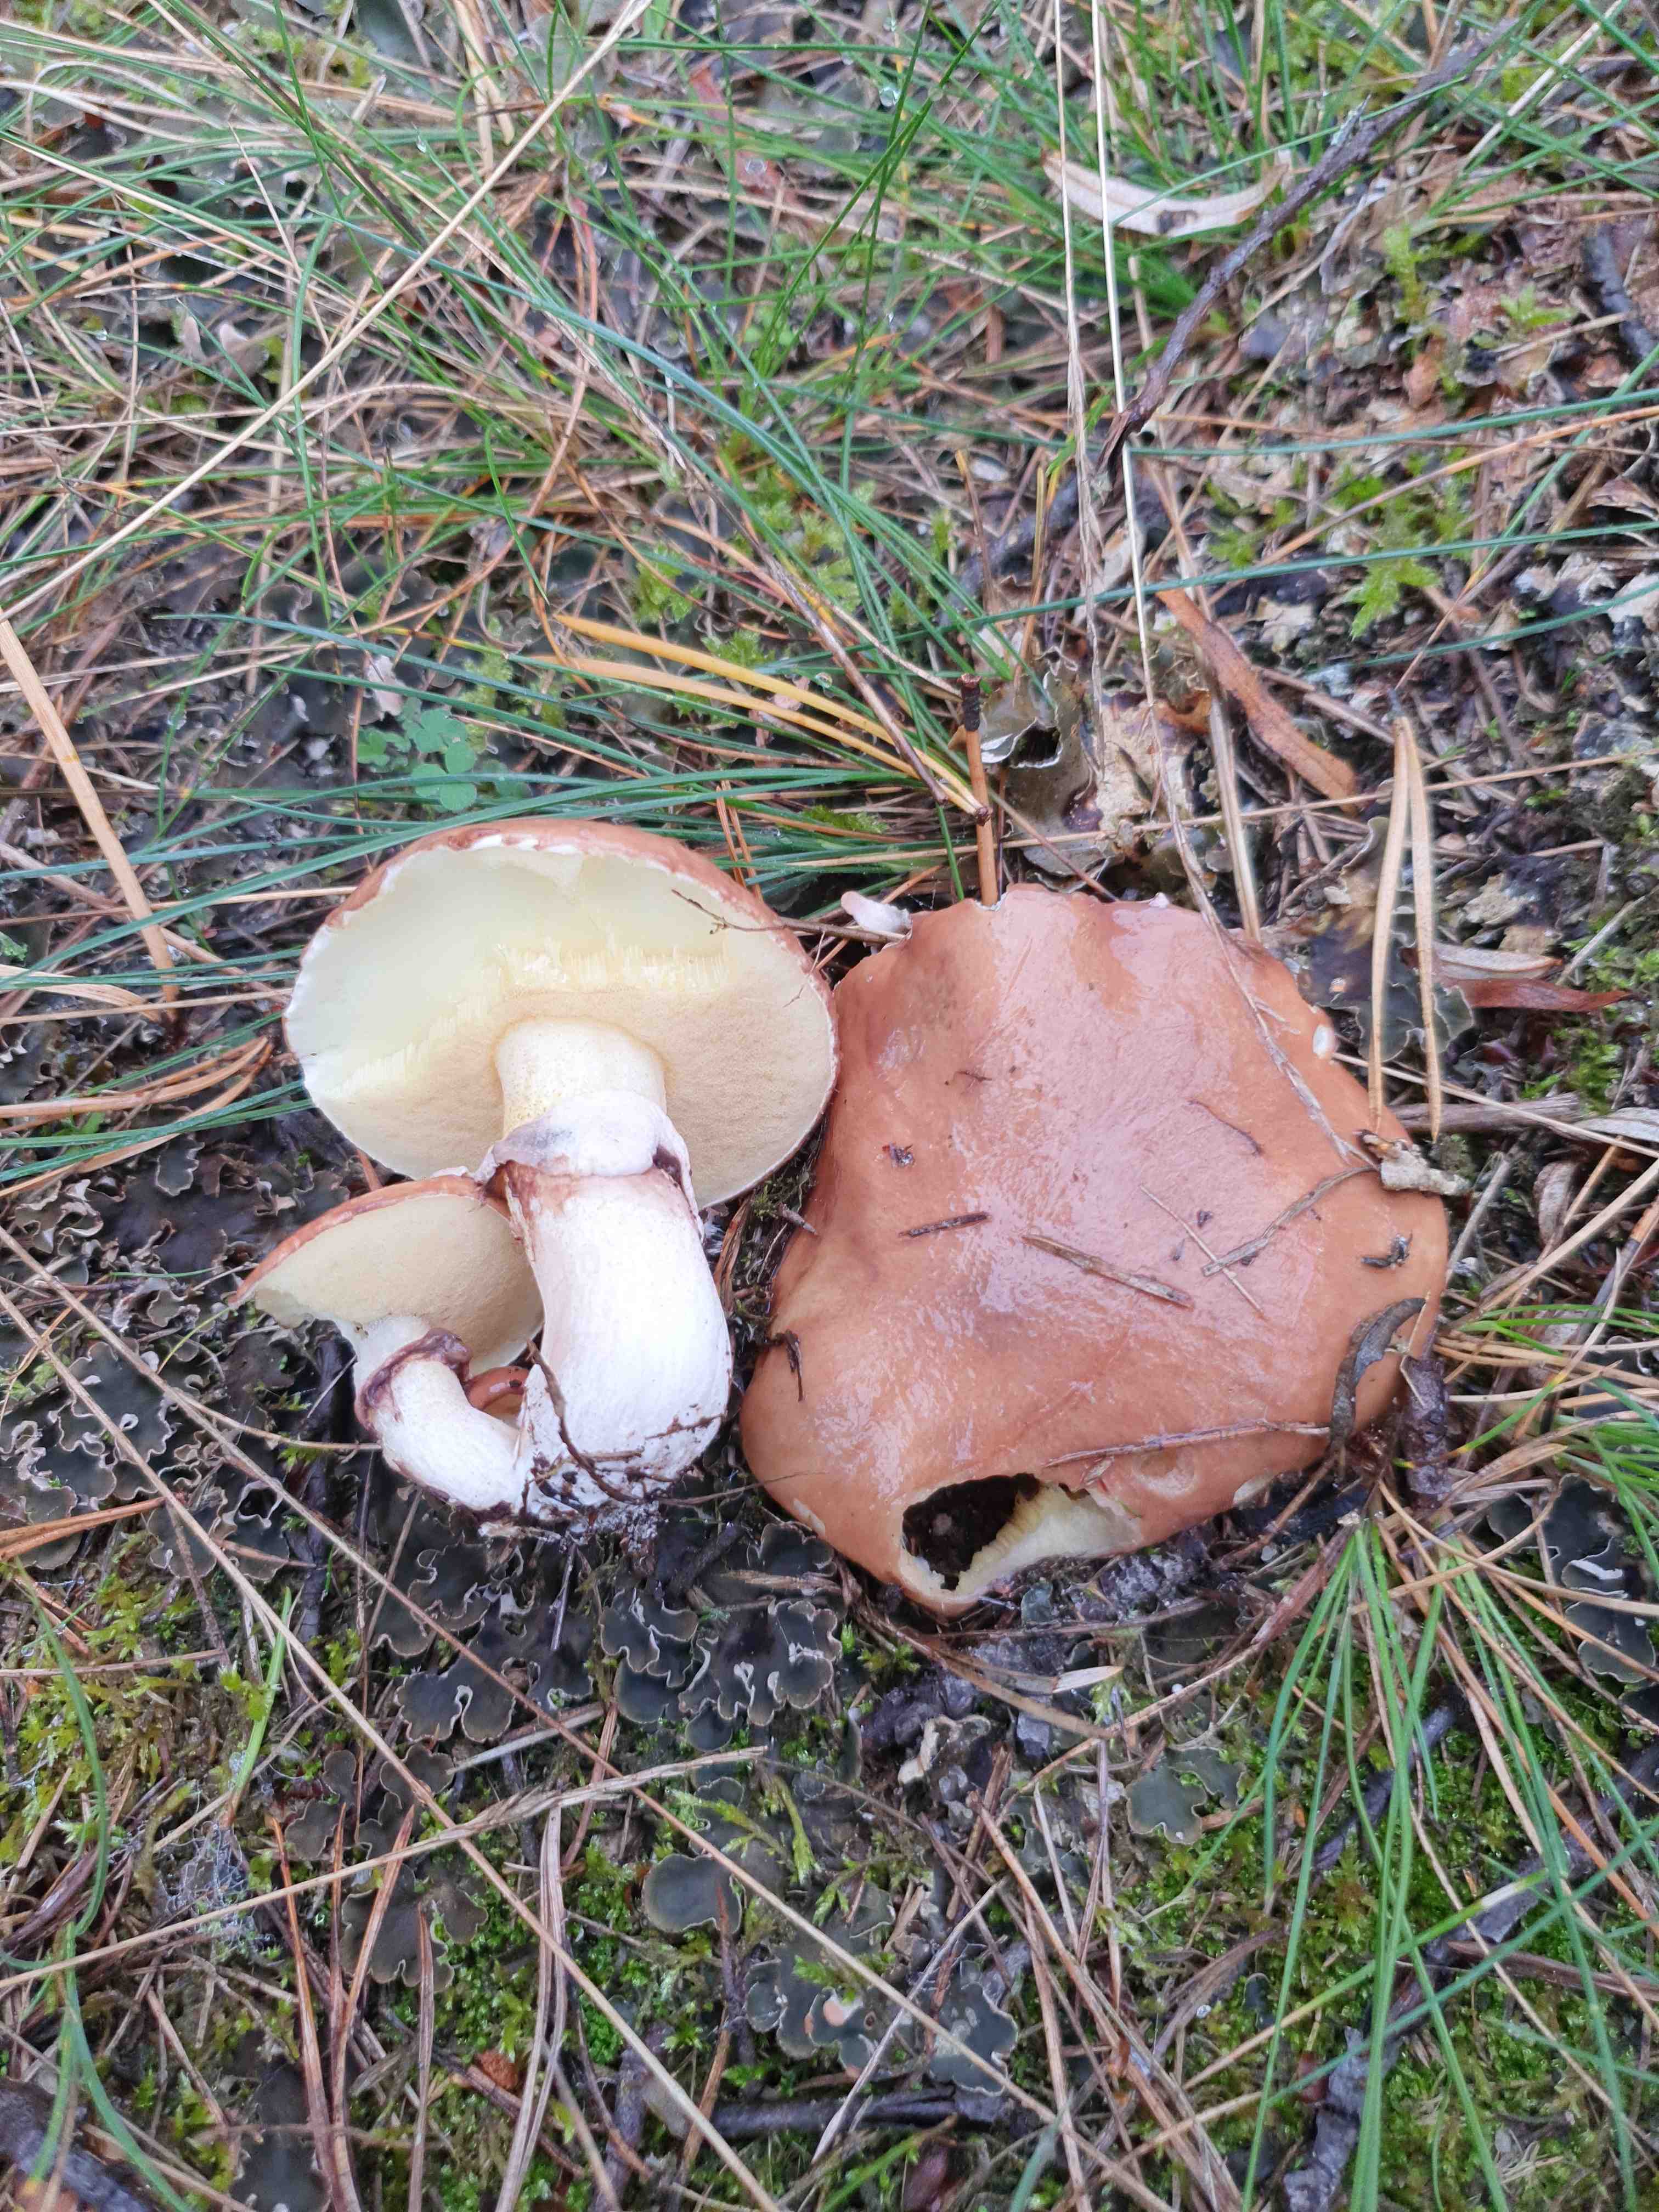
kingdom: Fungi
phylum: Basidiomycota
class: Agaricomycetes
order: Boletales
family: Suillaceae
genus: Suillus
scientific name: Suillus luteus
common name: brungul slimrørhat
